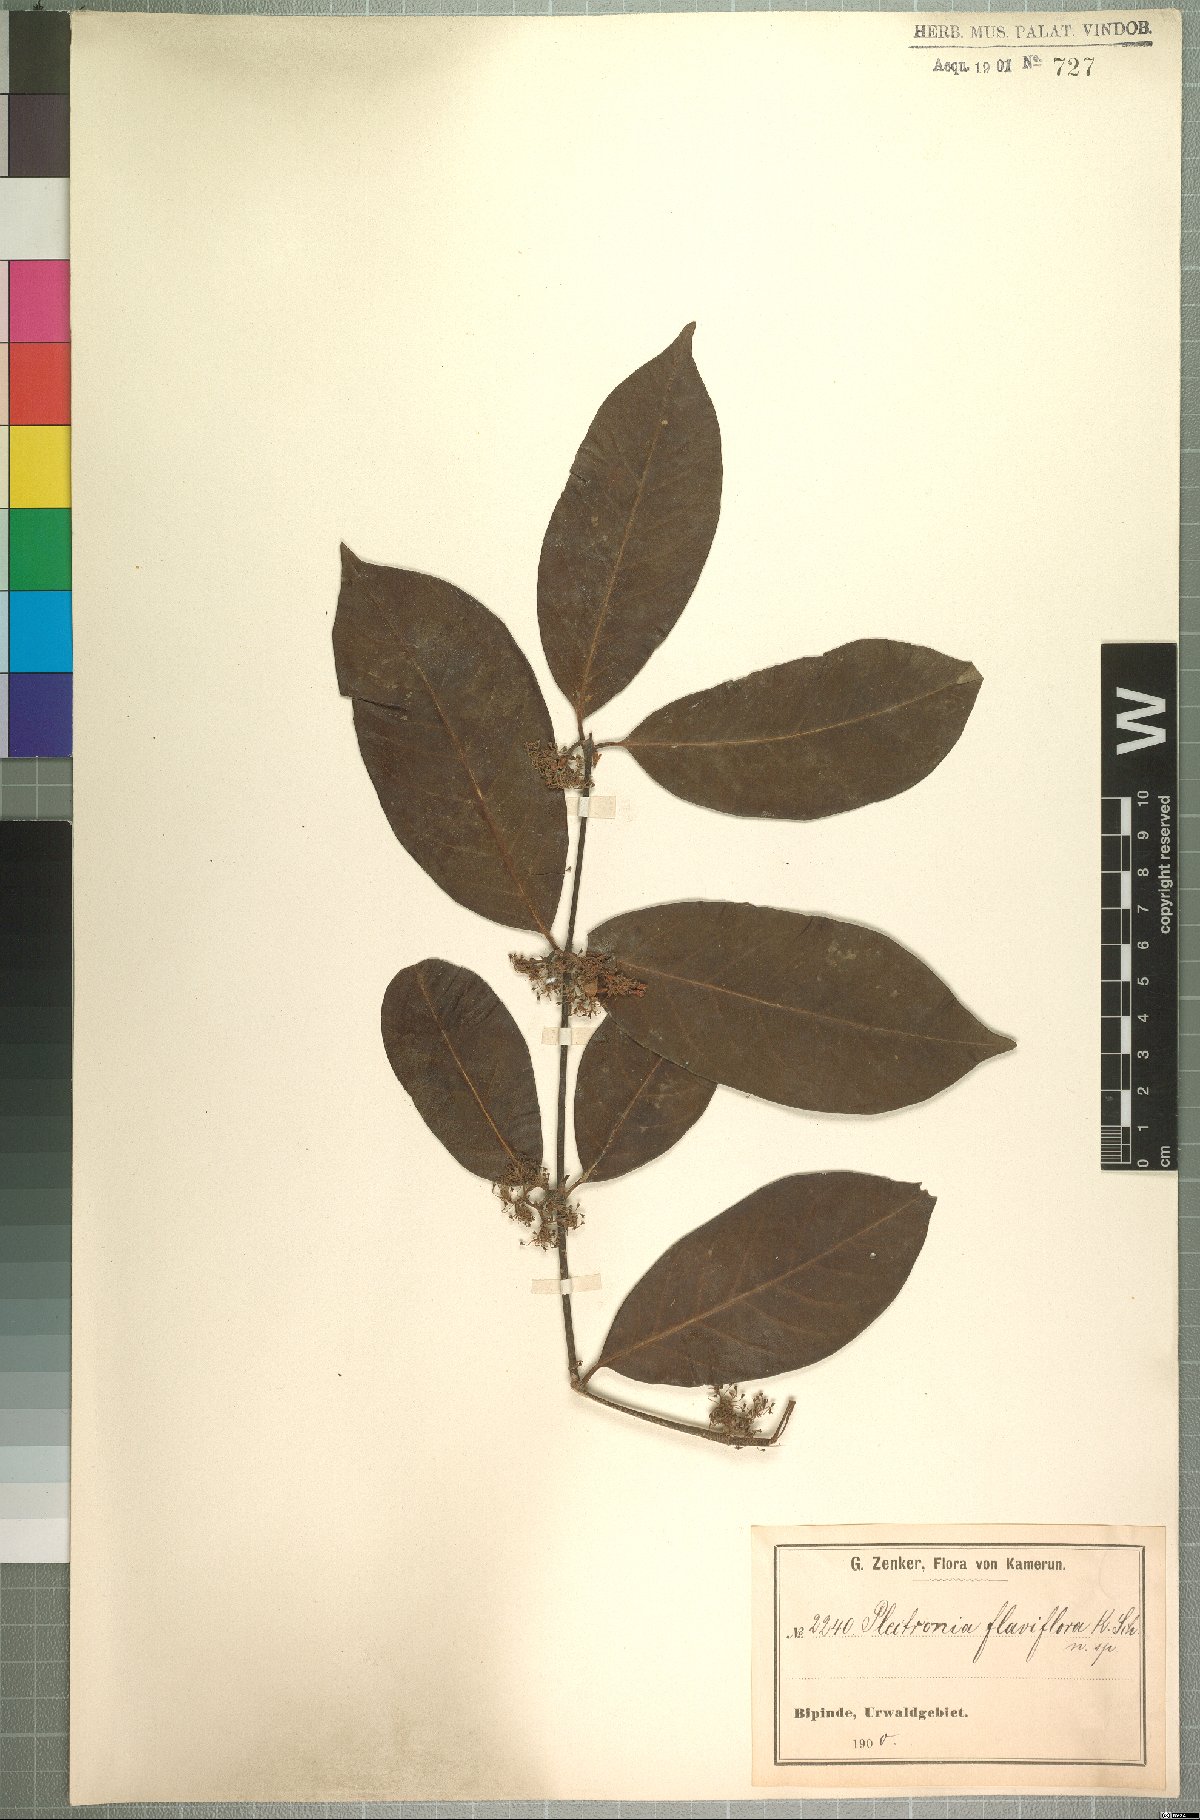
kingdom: Plantae
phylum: Tracheophyta
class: Magnoliopsida
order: Gentianales
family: Rubiaceae
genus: Keetia
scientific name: Keetia mannii
